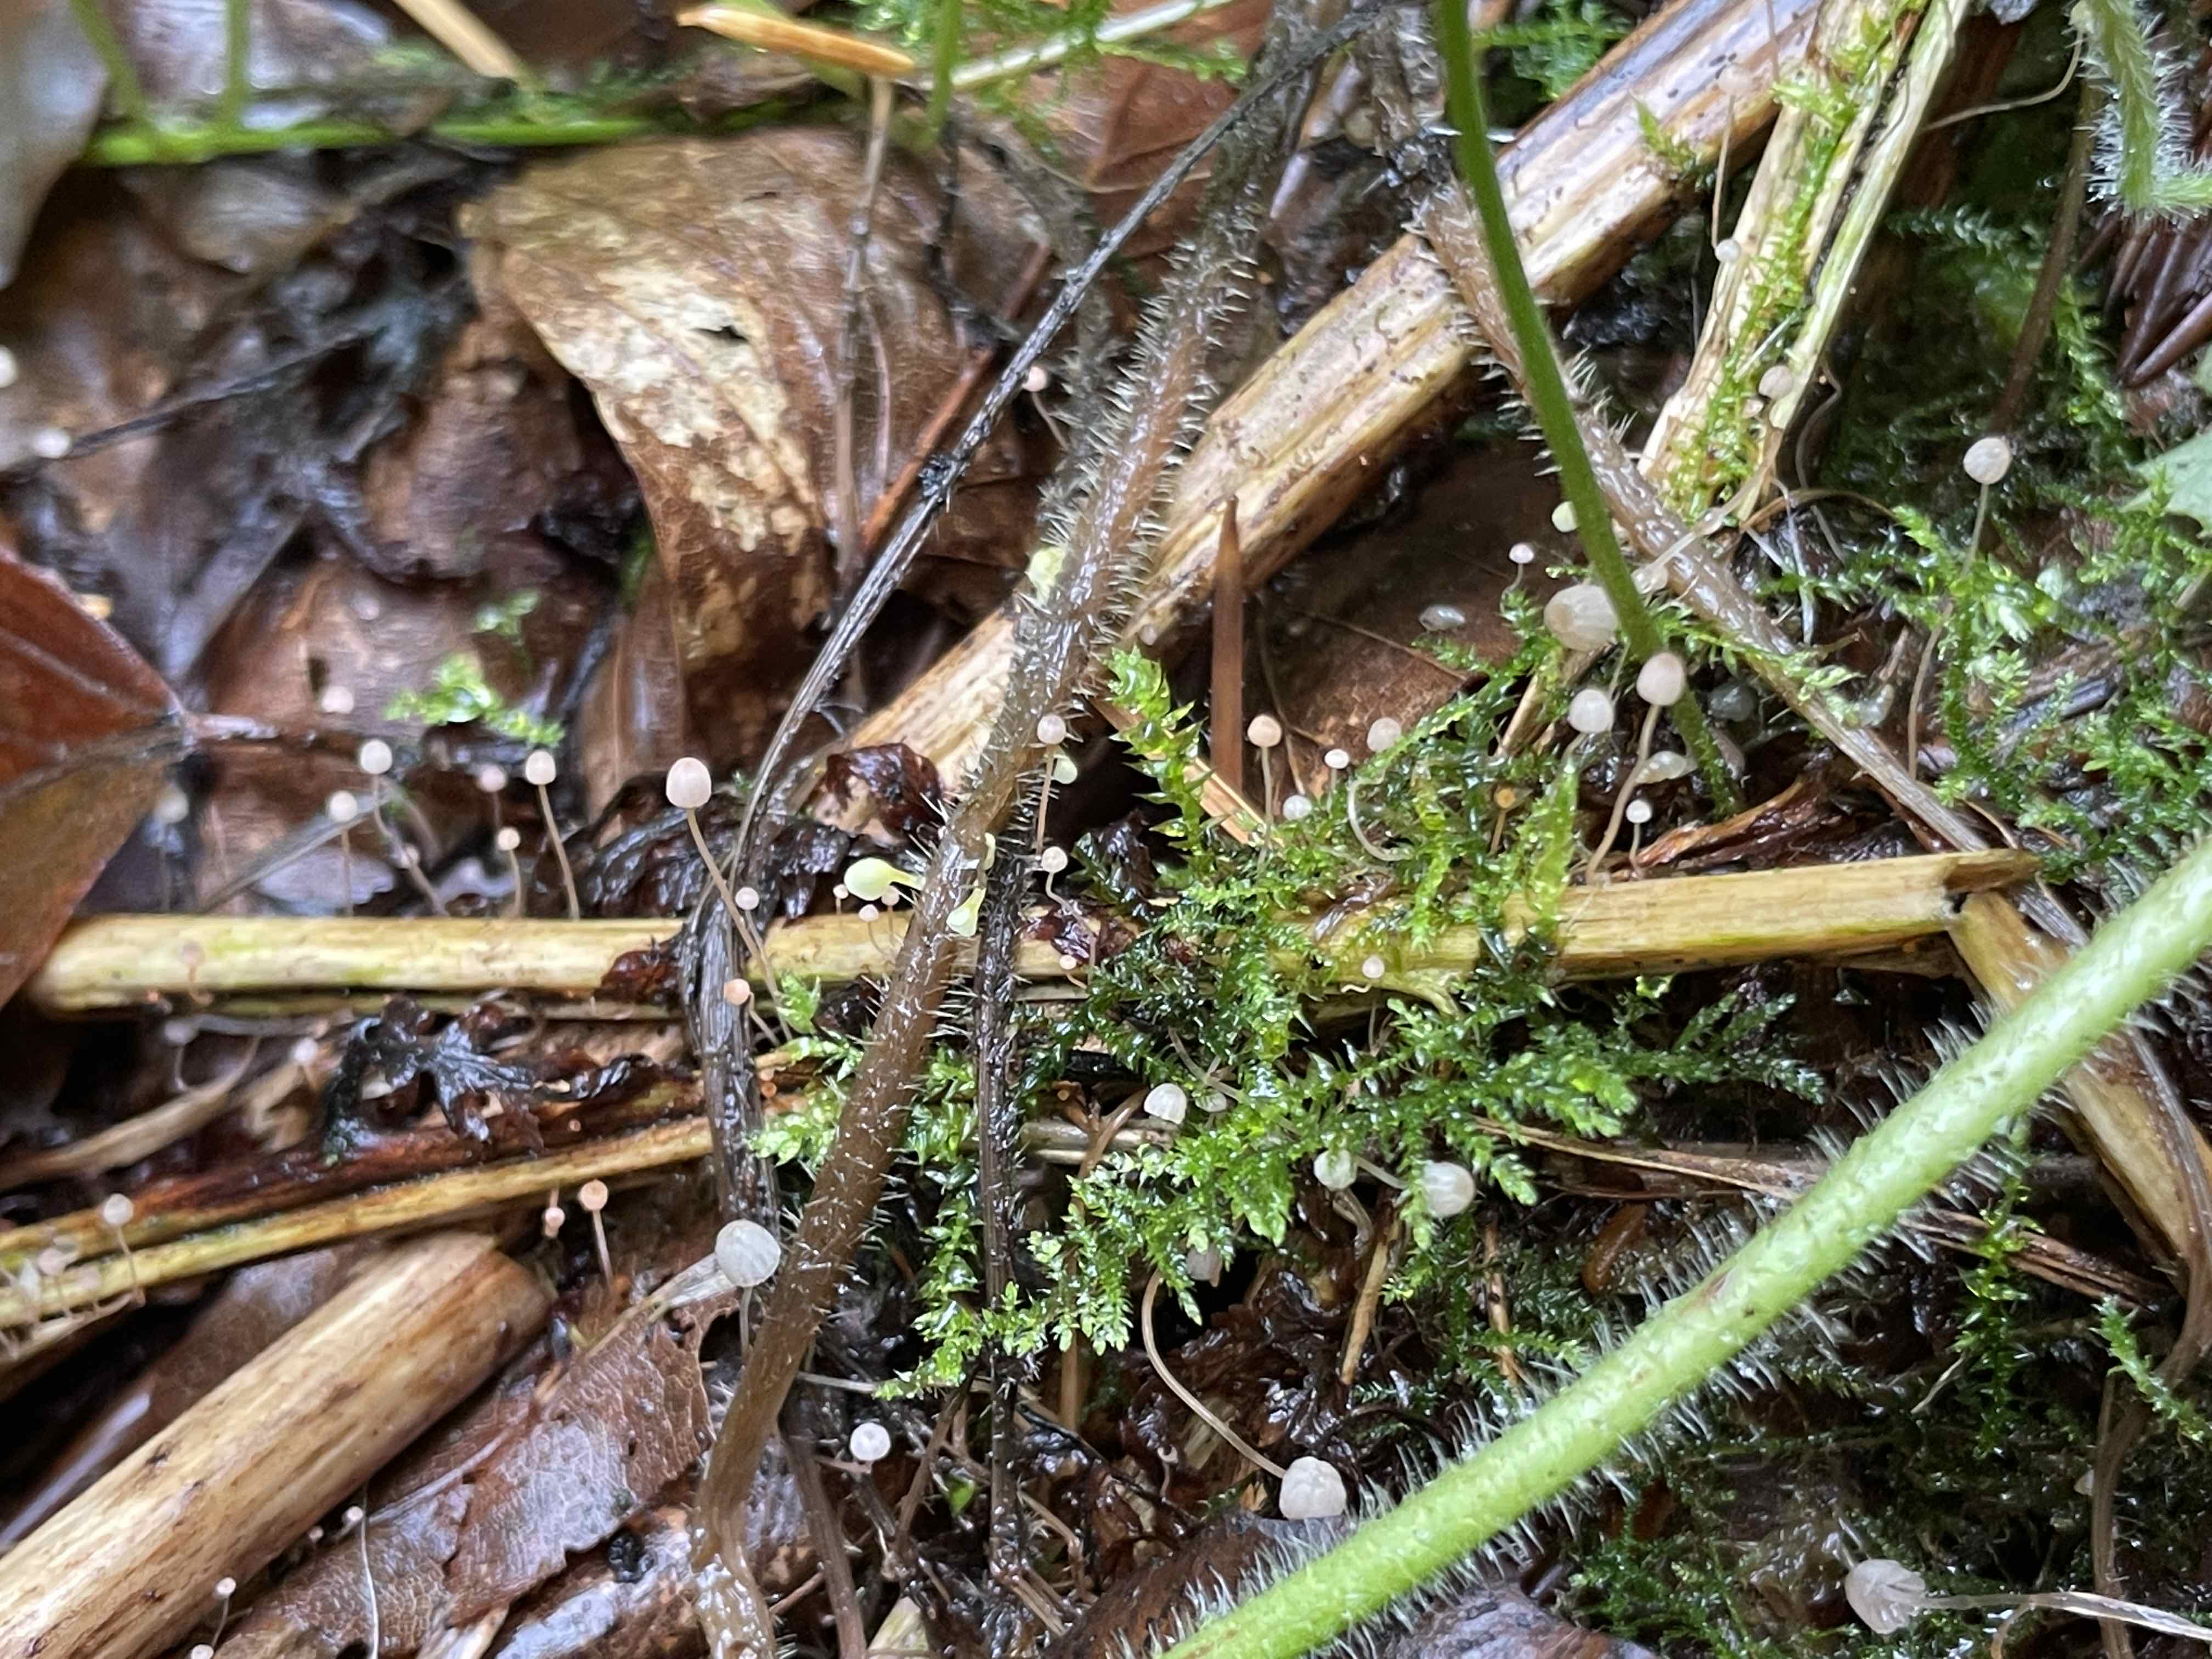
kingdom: Fungi
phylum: Basidiomycota
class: Agaricomycetes
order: Agaricales
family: Mycenaceae
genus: Mycena
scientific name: Mycena pterigena
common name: bregne-huesvamp
